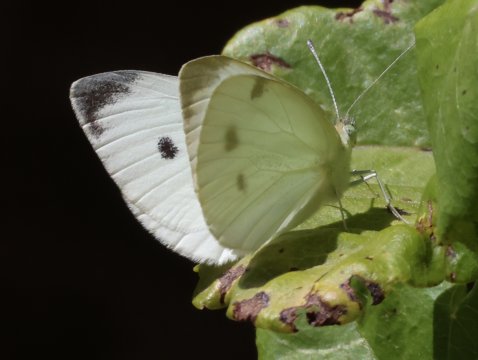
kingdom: Animalia
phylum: Arthropoda
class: Insecta
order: Lepidoptera
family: Pieridae
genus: Pieris
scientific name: Pieris rapae
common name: Cabbage White
